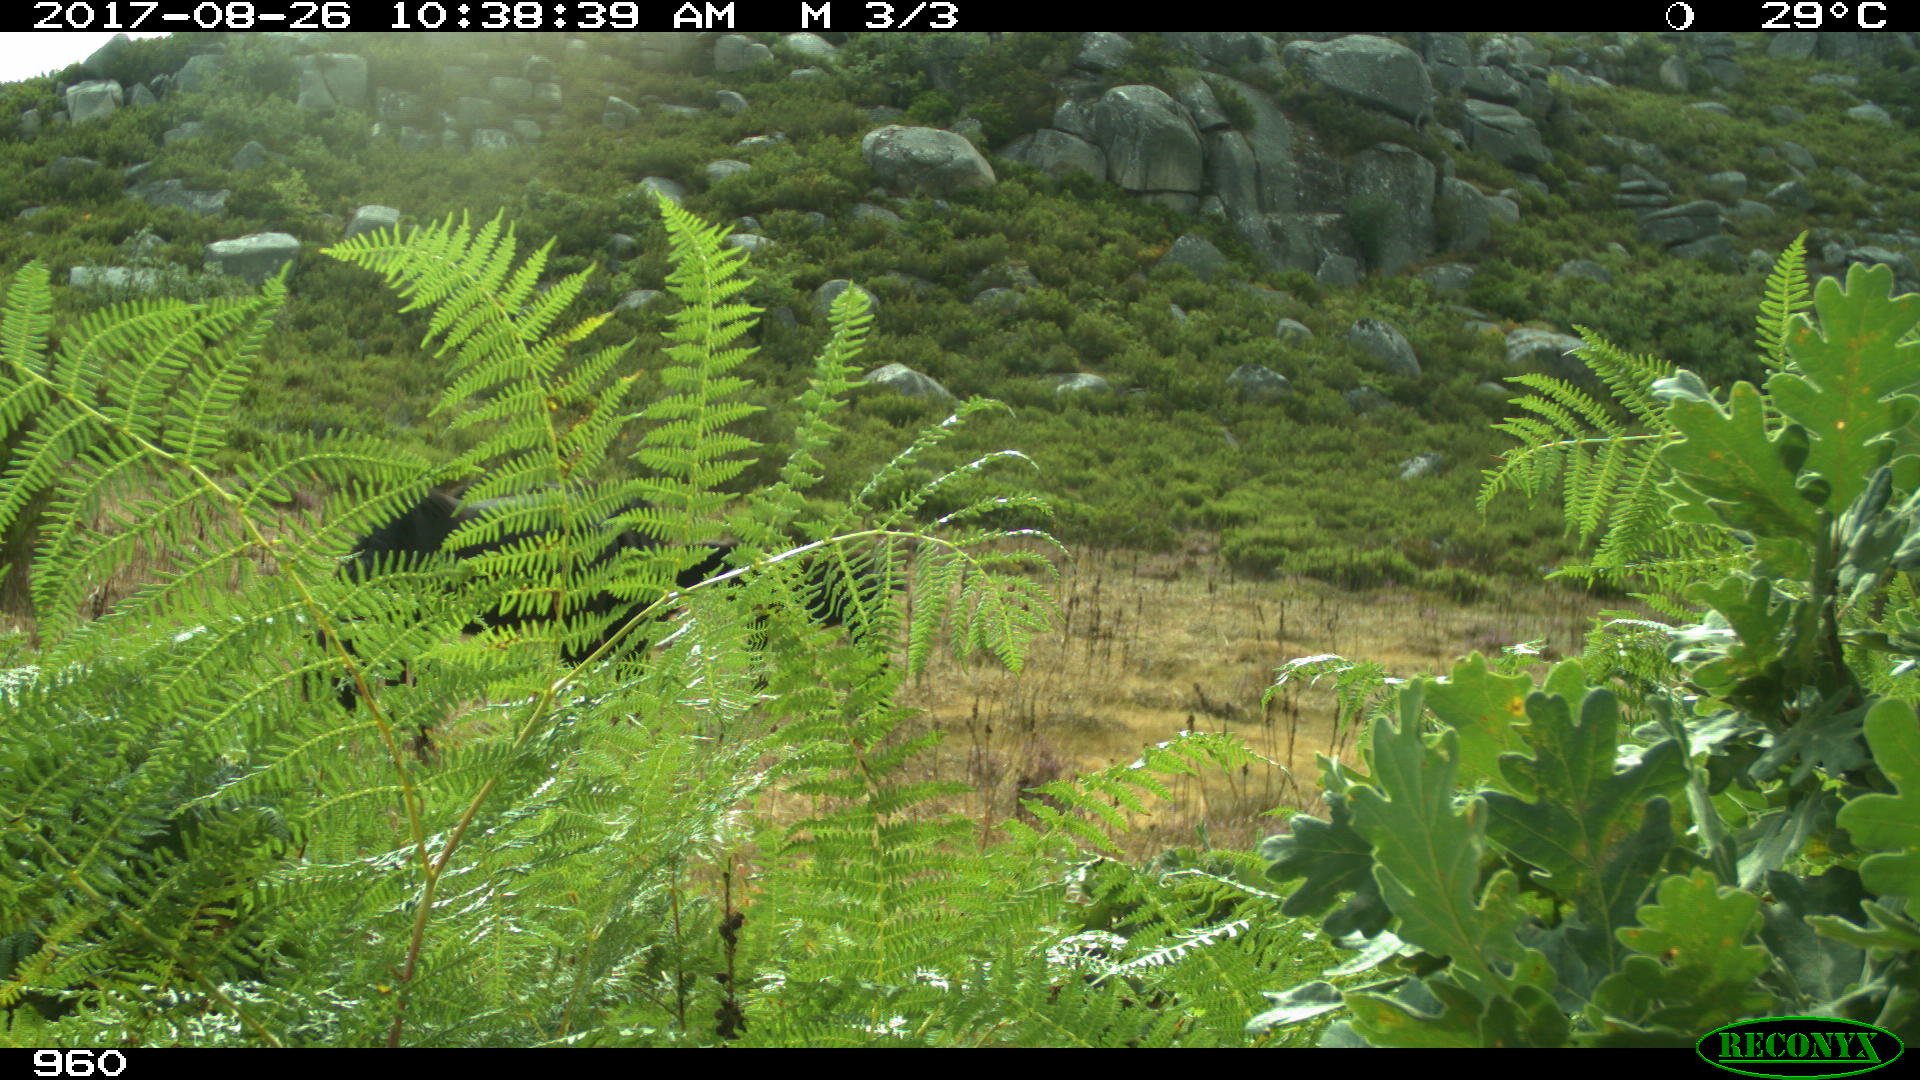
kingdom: Animalia
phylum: Chordata
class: Mammalia
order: Perissodactyla
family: Equidae
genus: Equus
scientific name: Equus caballus
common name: Horse
